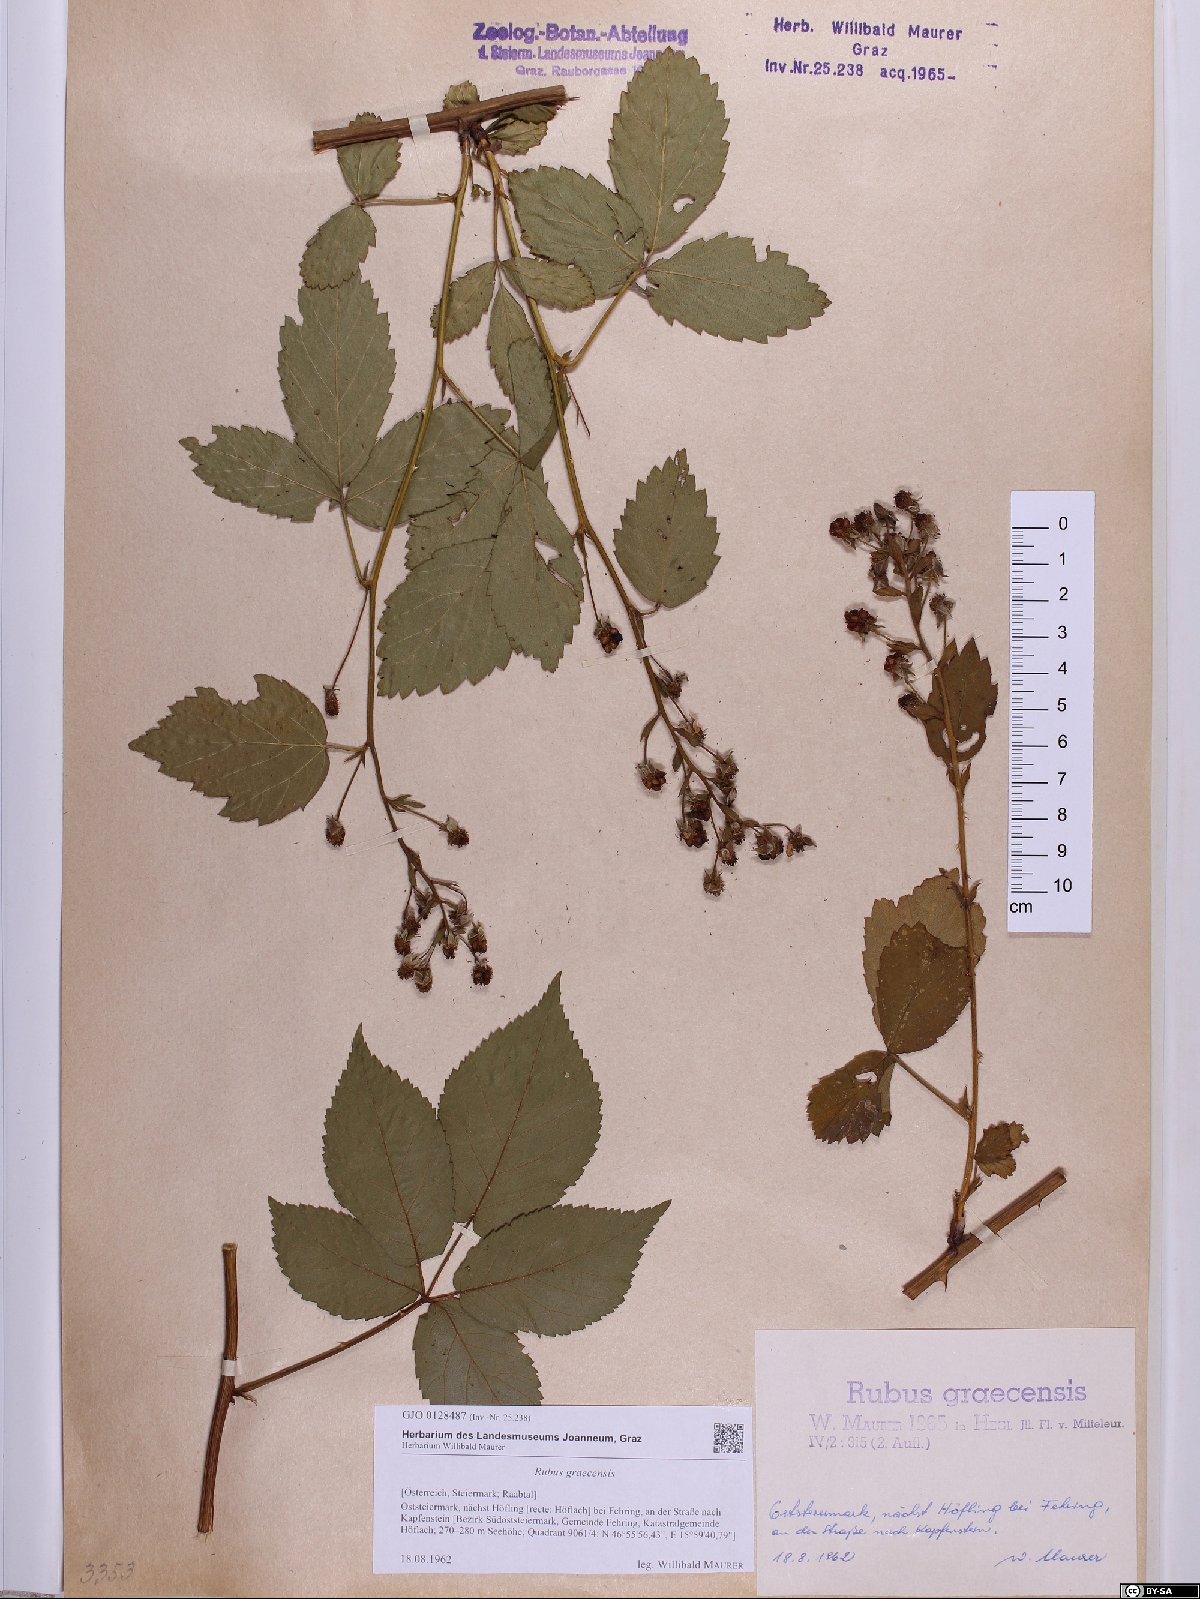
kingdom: Plantae
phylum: Tracheophyta
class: Magnoliopsida
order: Rosales
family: Rosaceae
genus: Rubus
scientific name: Rubus graecensis
